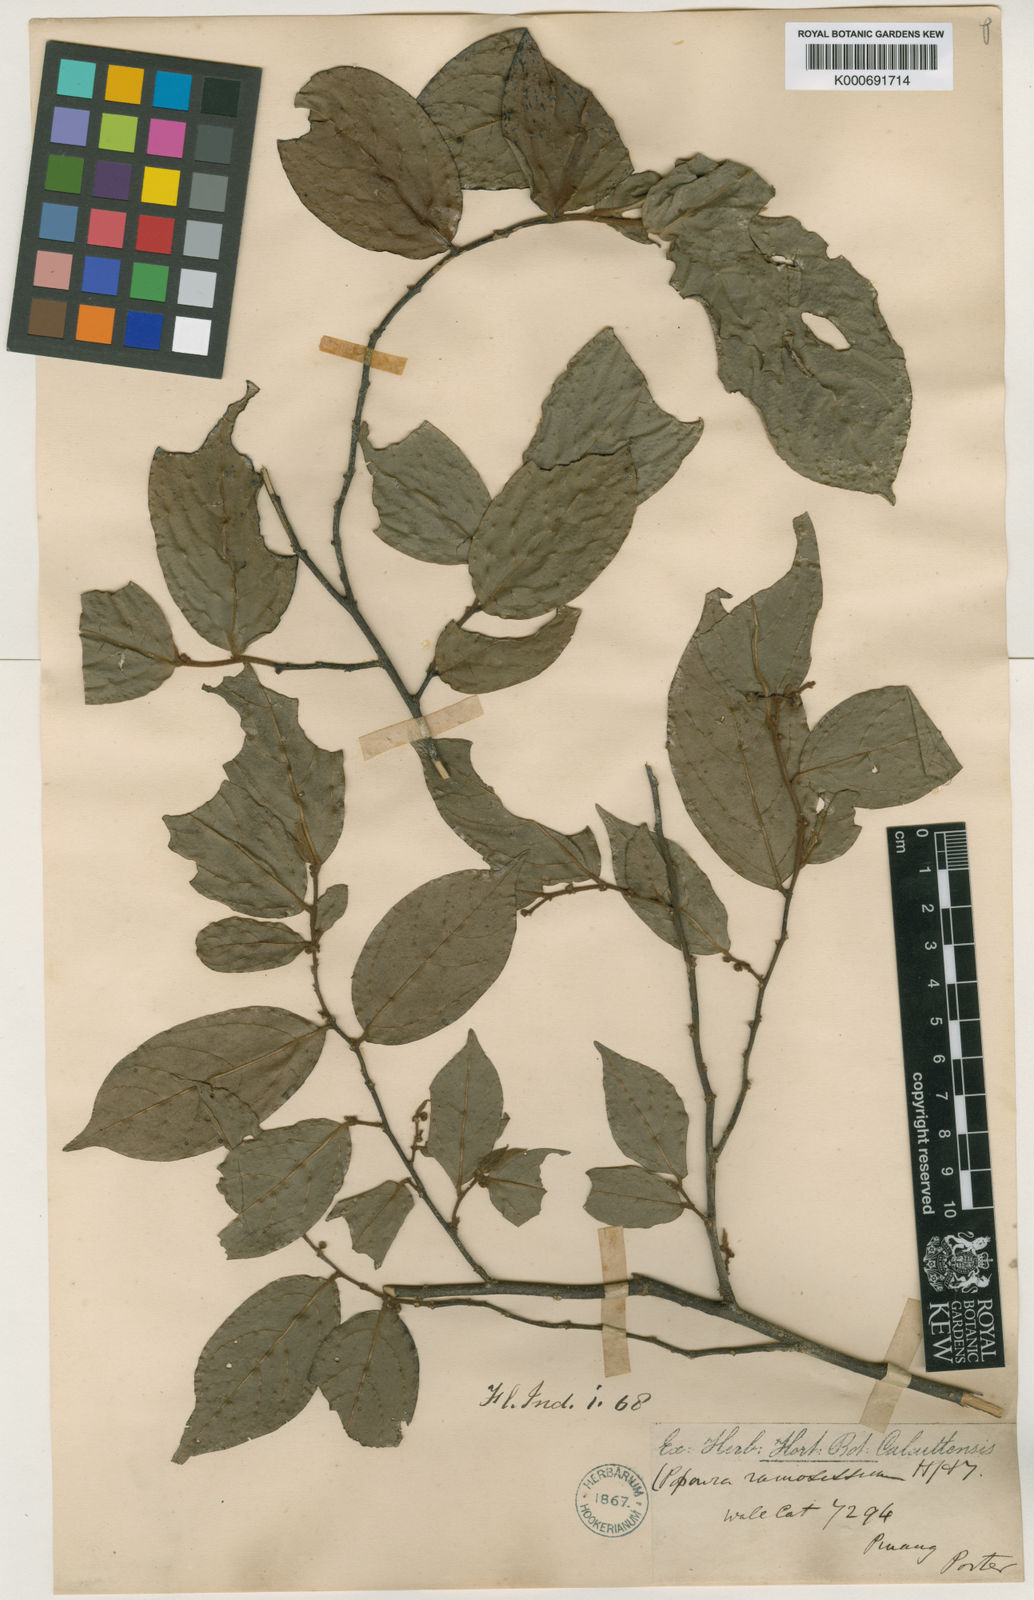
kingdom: Plantae
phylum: Tracheophyta
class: Magnoliopsida
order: Magnoliales
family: Annonaceae
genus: Popowia
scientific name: Popowia
